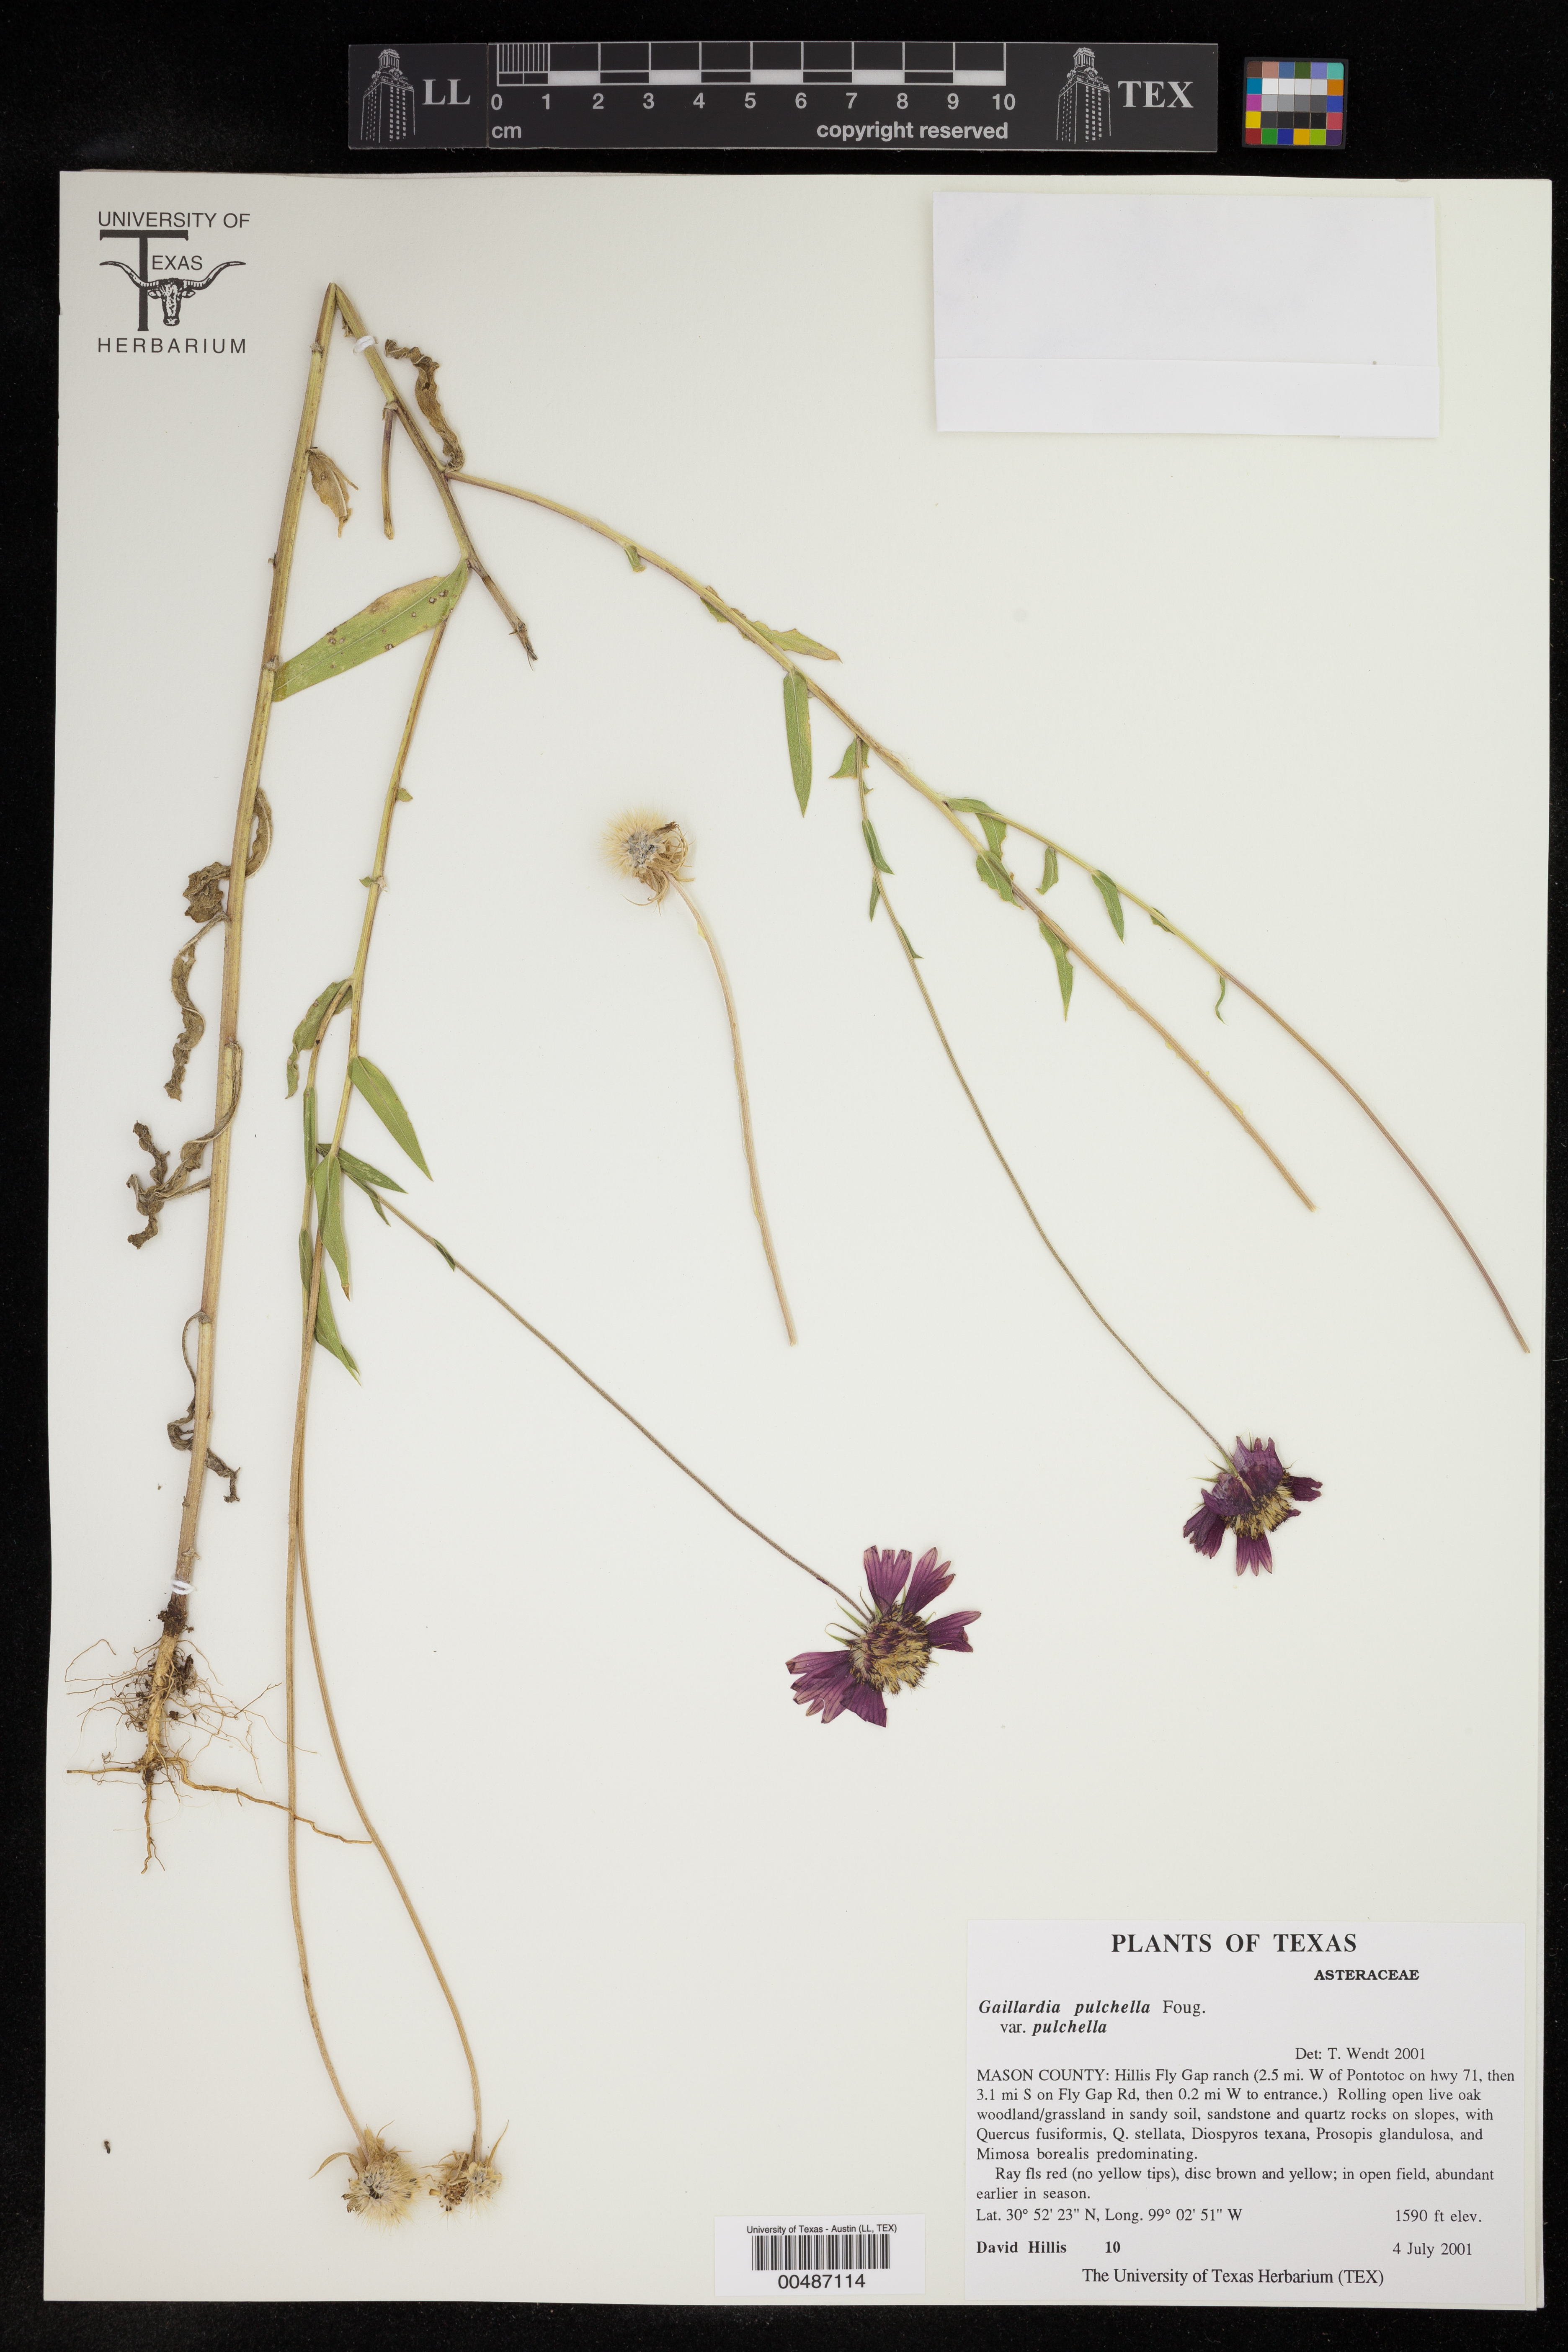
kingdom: Plantae
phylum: Tracheophyta
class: Magnoliopsida
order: Asterales
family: Asteraceae
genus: Gaillardia
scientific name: Gaillardia pulchella
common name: Firewheel
